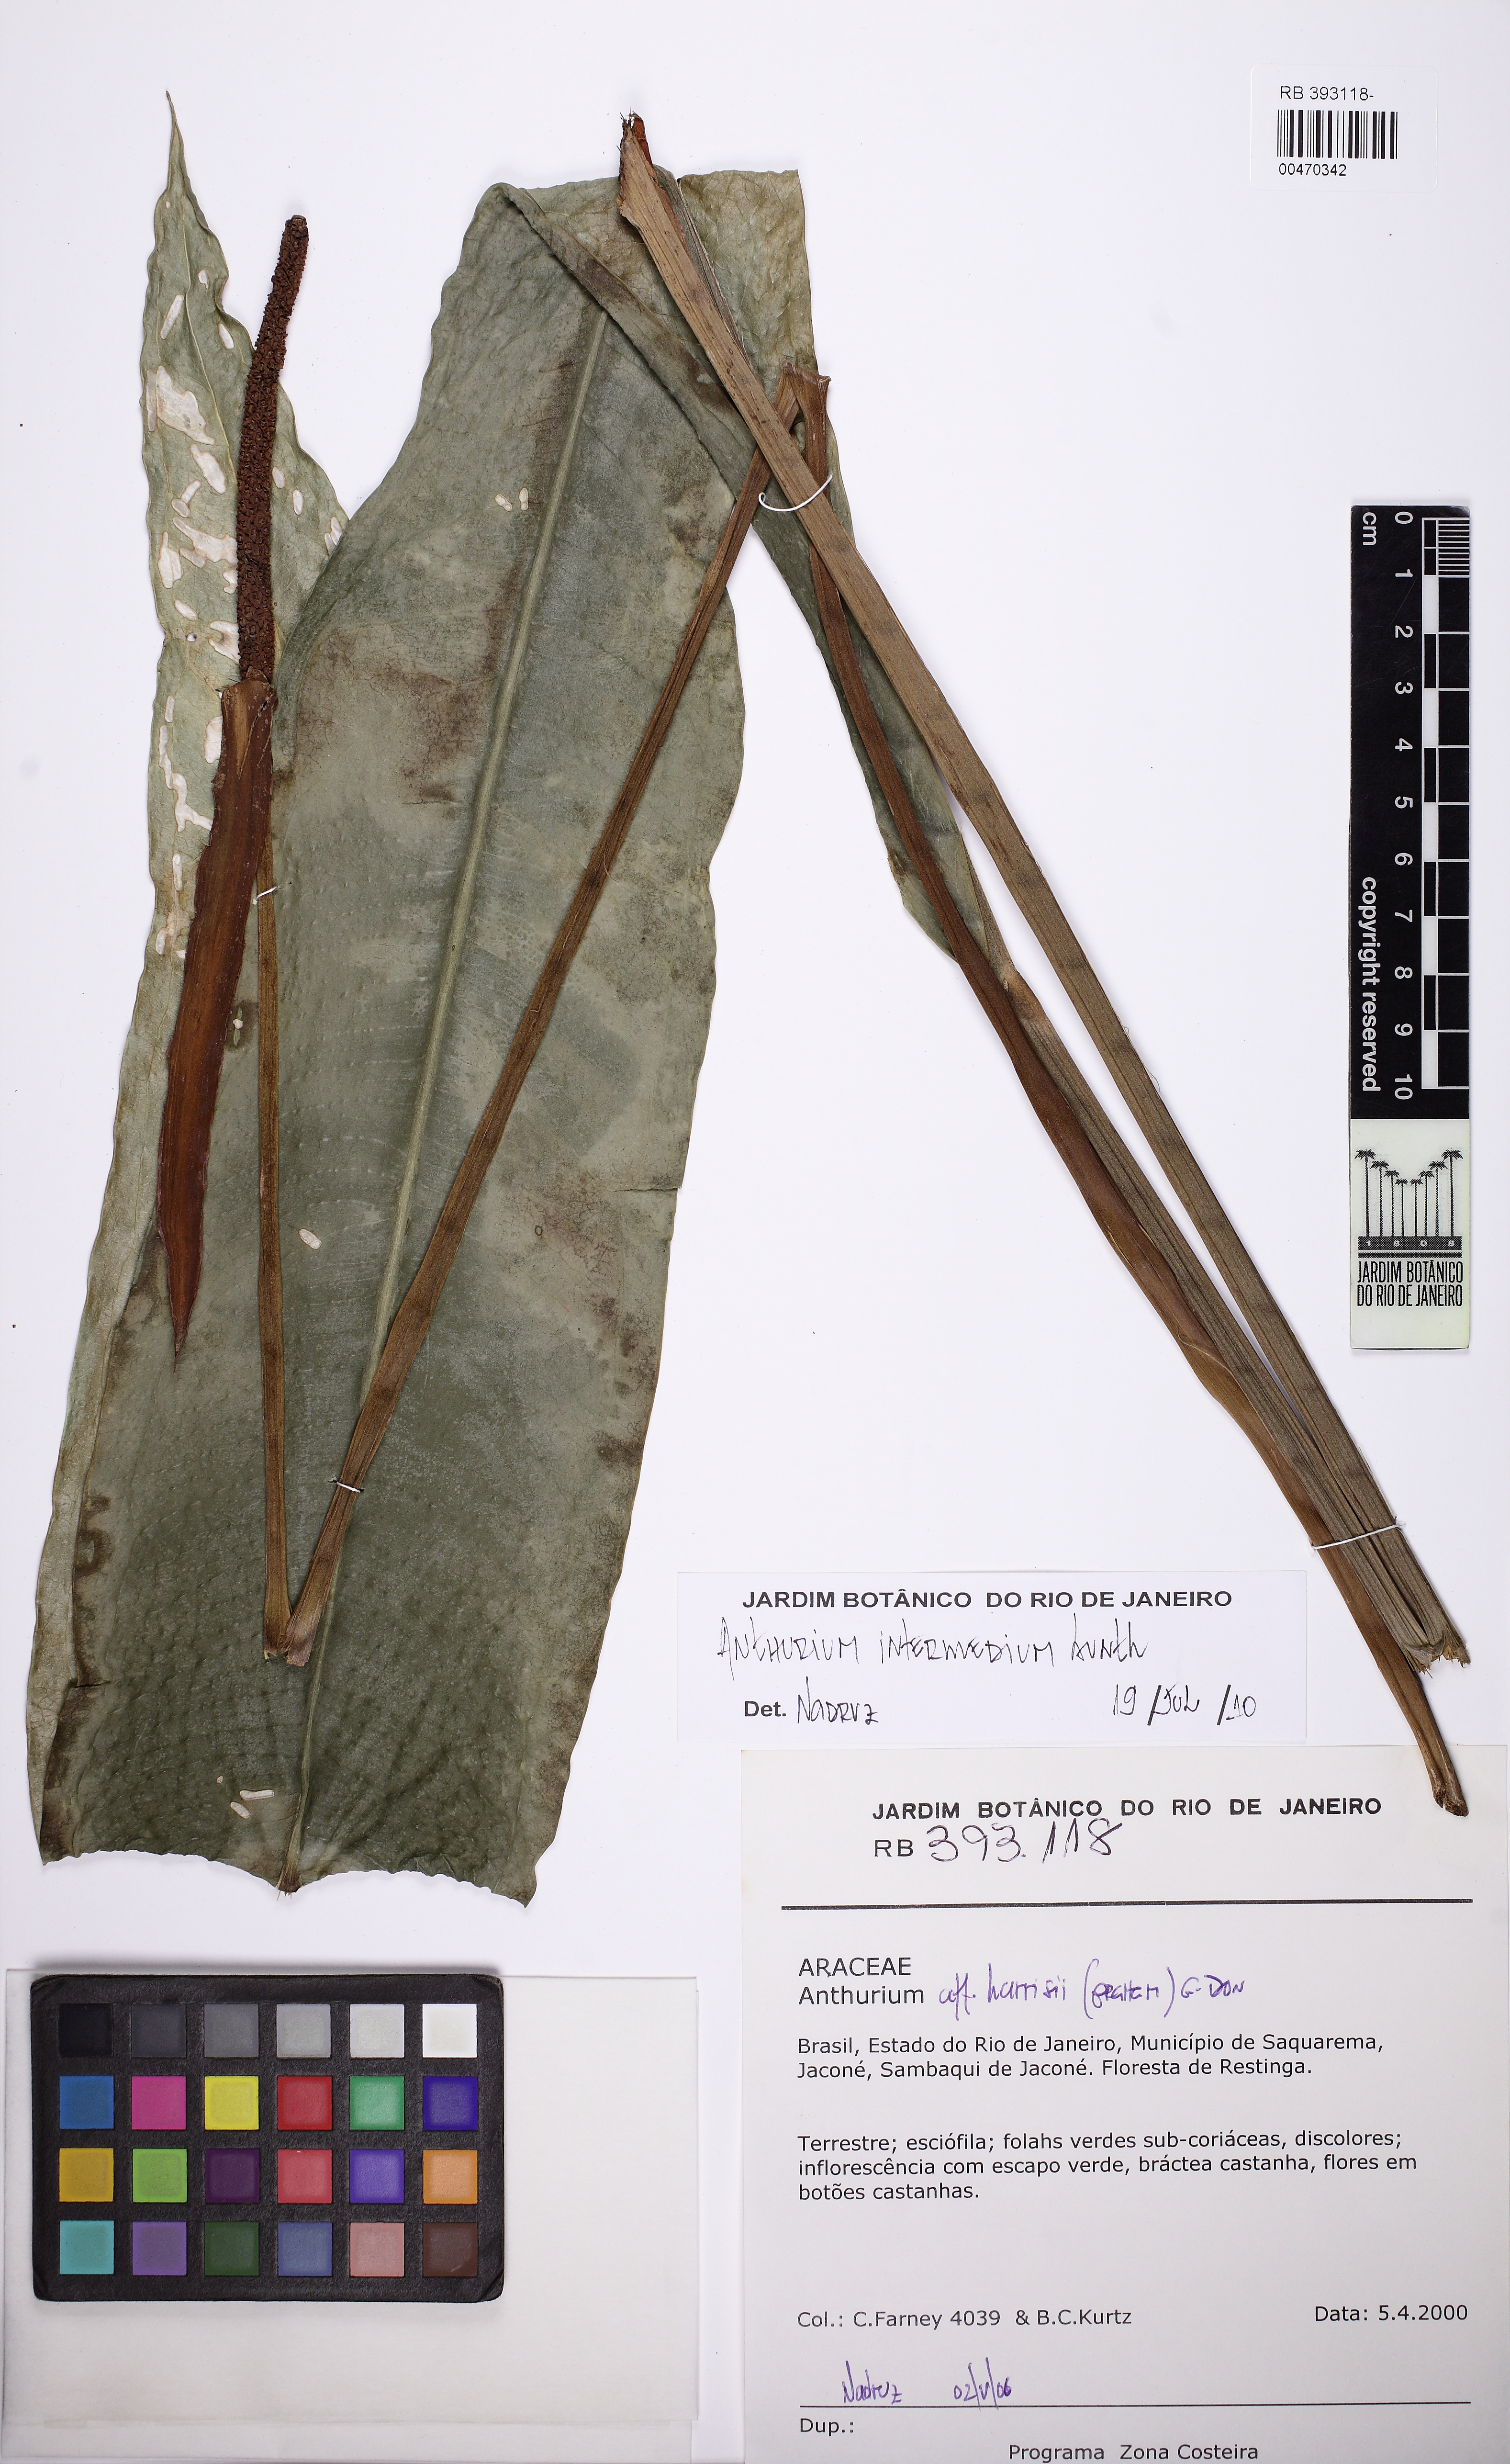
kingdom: Plantae
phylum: Tracheophyta
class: Liliopsida
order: Alismatales
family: Araceae
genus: Anthurium
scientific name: Anthurium intermedium
